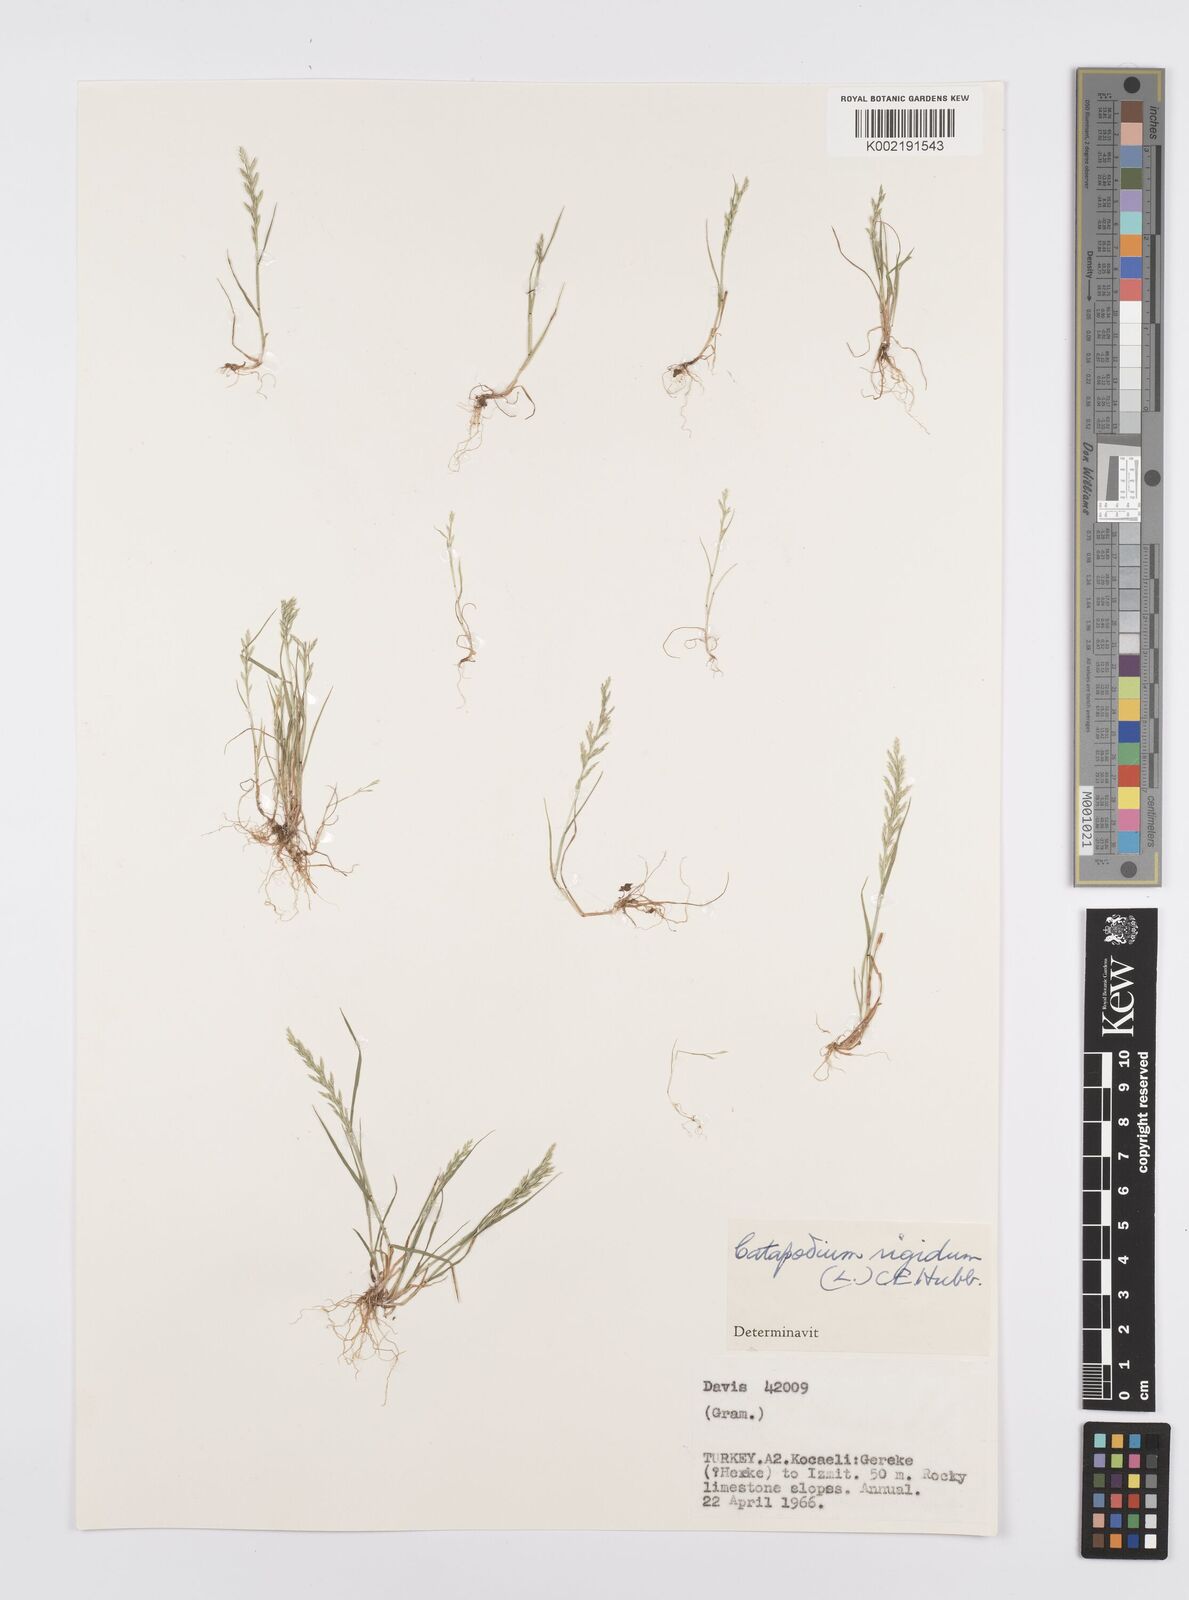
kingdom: Plantae
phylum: Tracheophyta
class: Liliopsida
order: Poales
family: Poaceae
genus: Catapodium
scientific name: Catapodium rigidum
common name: Fern-grass
